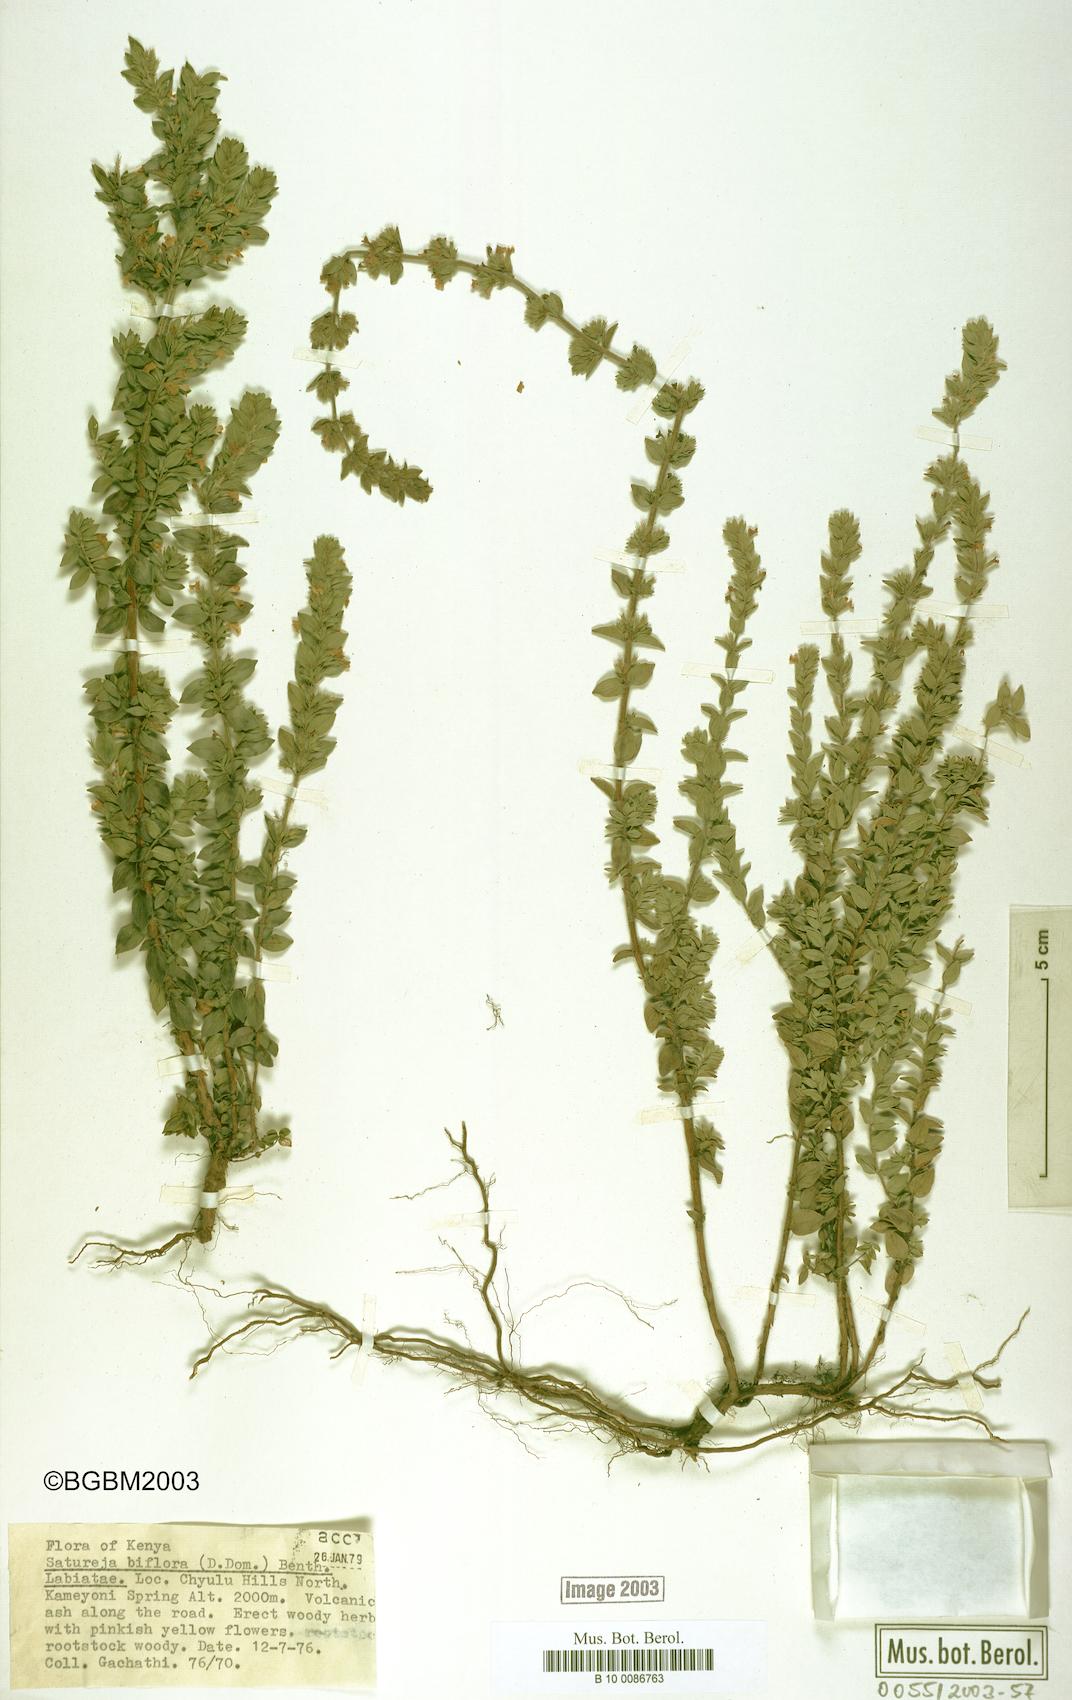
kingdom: Plantae
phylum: Tracheophyta
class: Magnoliopsida
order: Lamiales
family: Lamiaceae
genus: Micromeria
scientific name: Micromeria biflora
